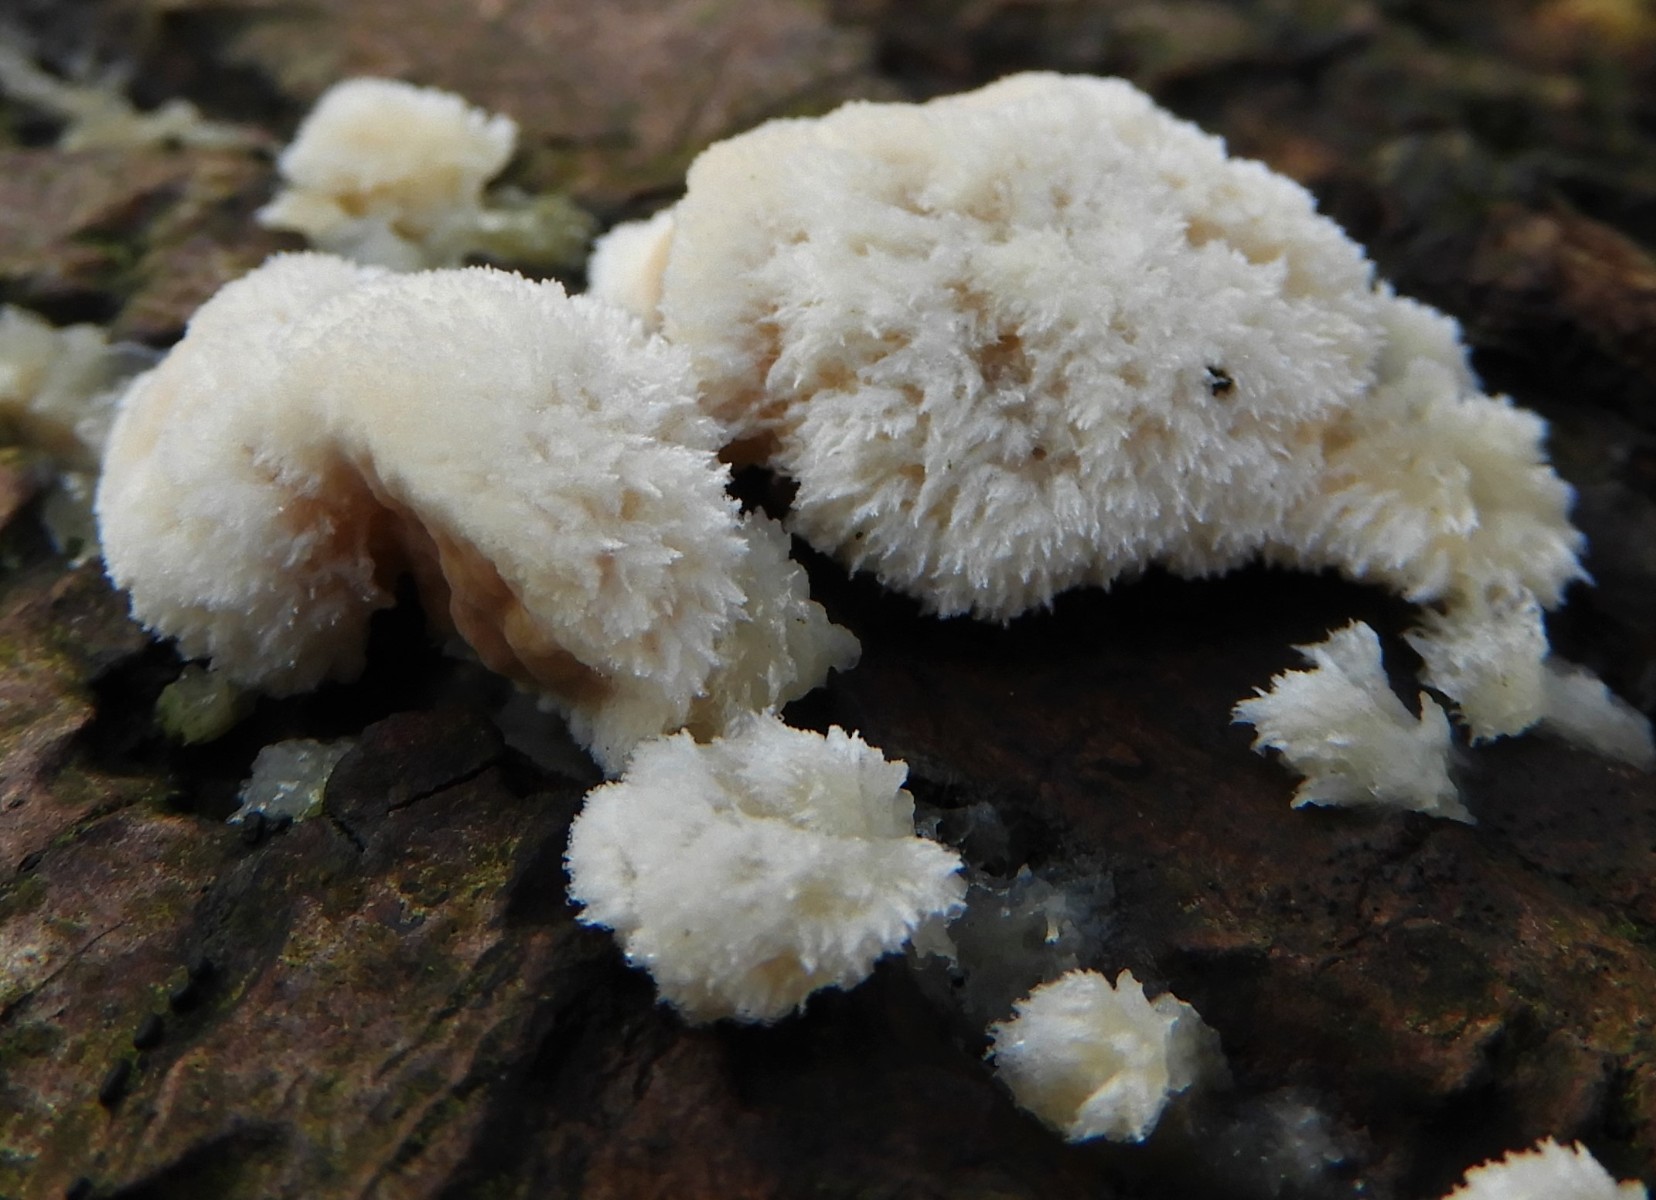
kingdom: Fungi
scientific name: Fungi
